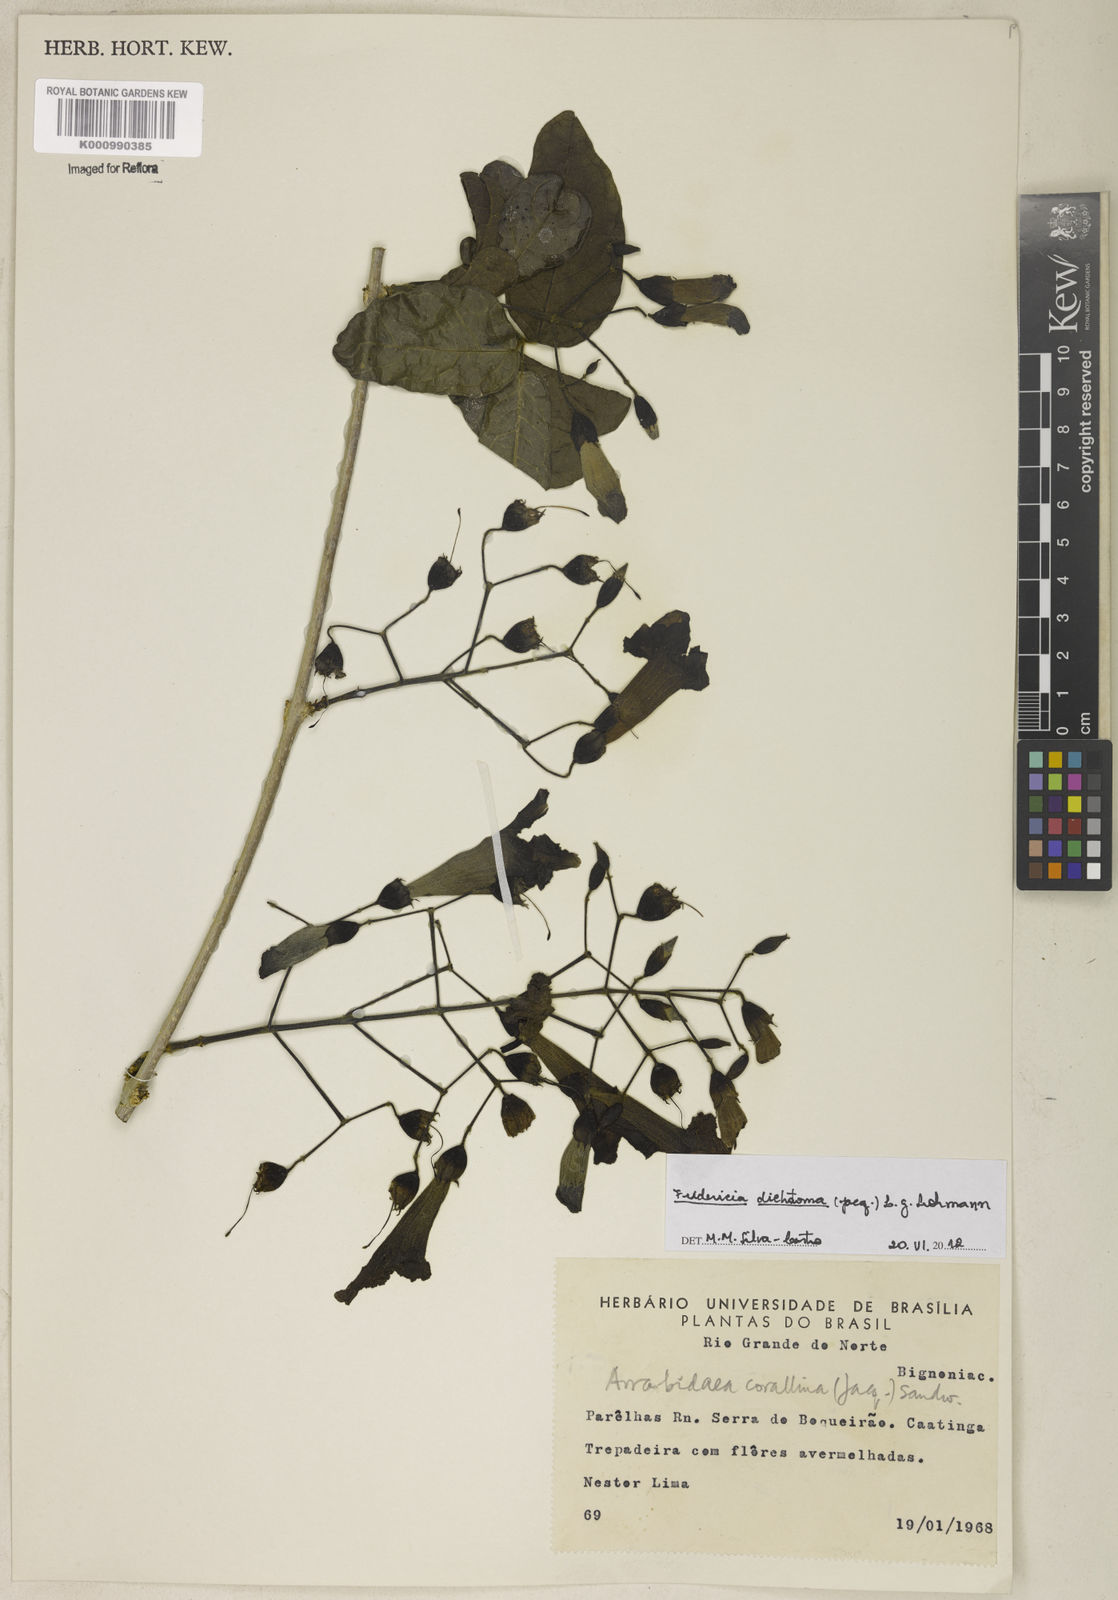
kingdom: Plantae
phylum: Tracheophyta
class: Magnoliopsida
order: Lamiales
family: Bignoniaceae
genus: Tanaecium
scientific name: Tanaecium dichotomum
